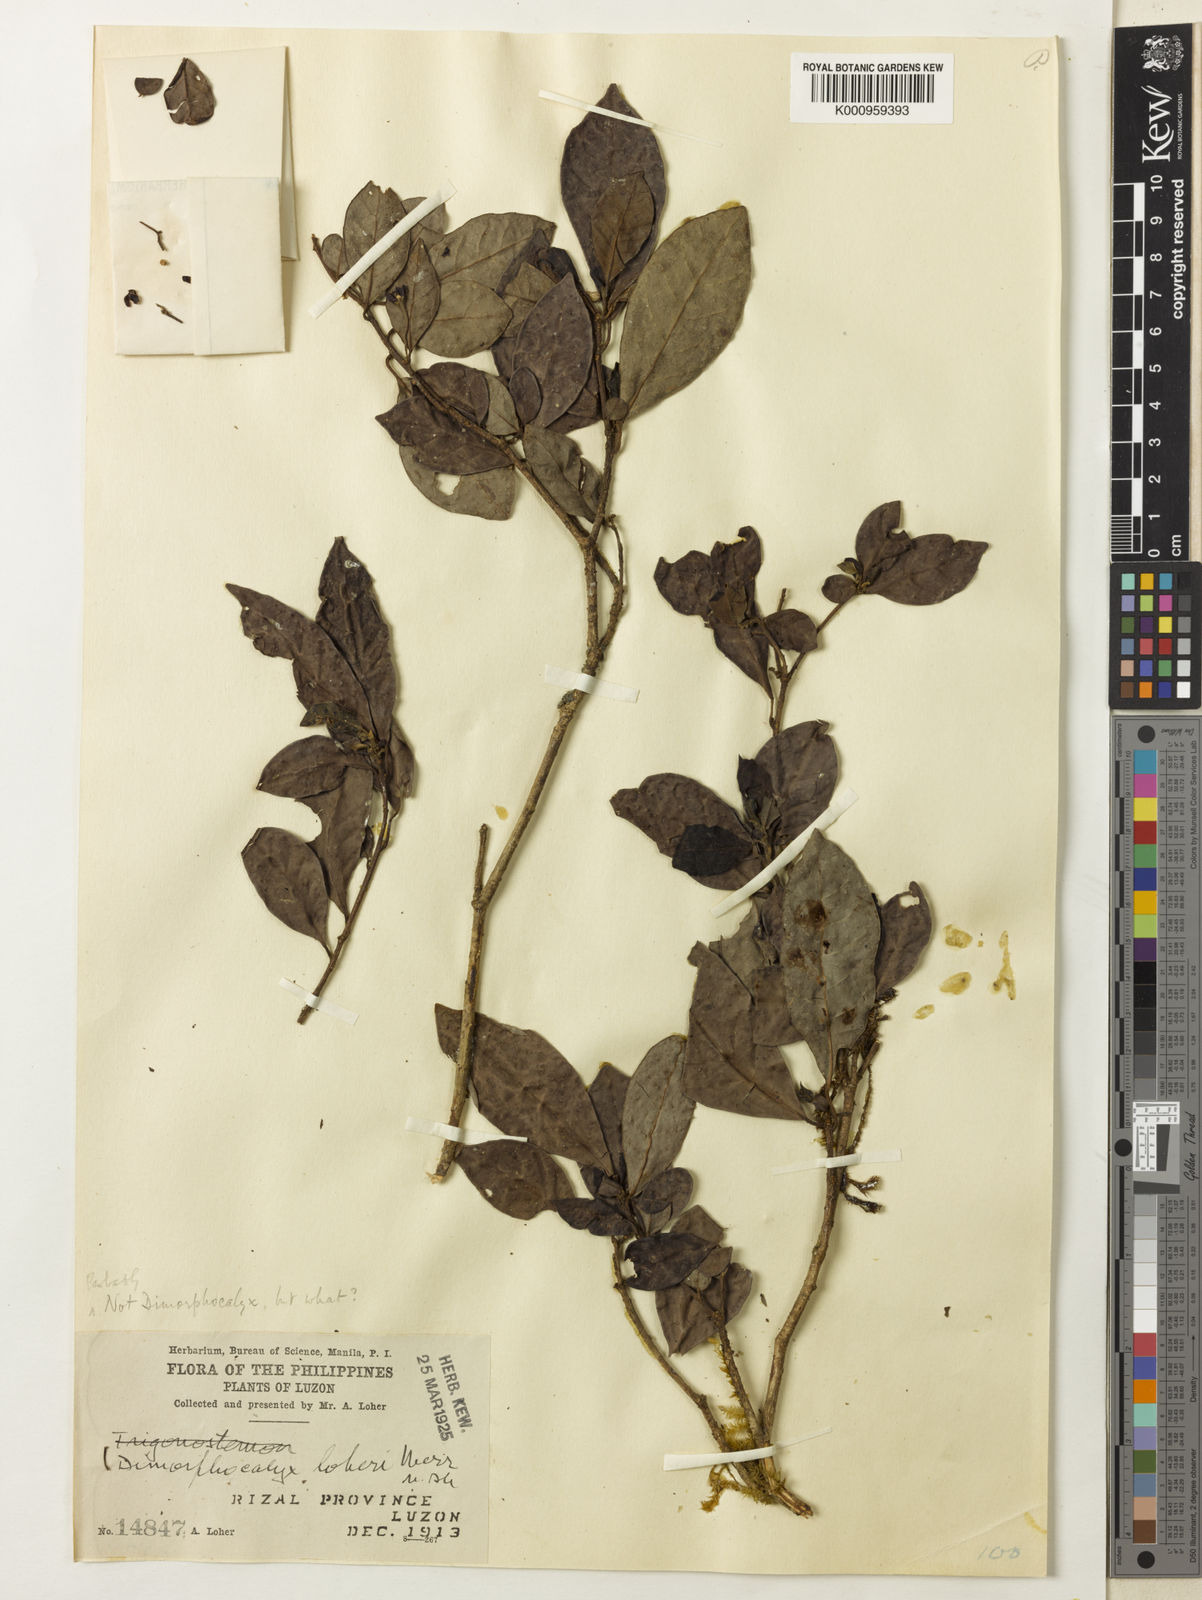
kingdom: Plantae
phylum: Tracheophyta
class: Magnoliopsida
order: Malpighiales
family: Euphorbiaceae
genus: Tritaxis
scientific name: Tritaxis denticulata
